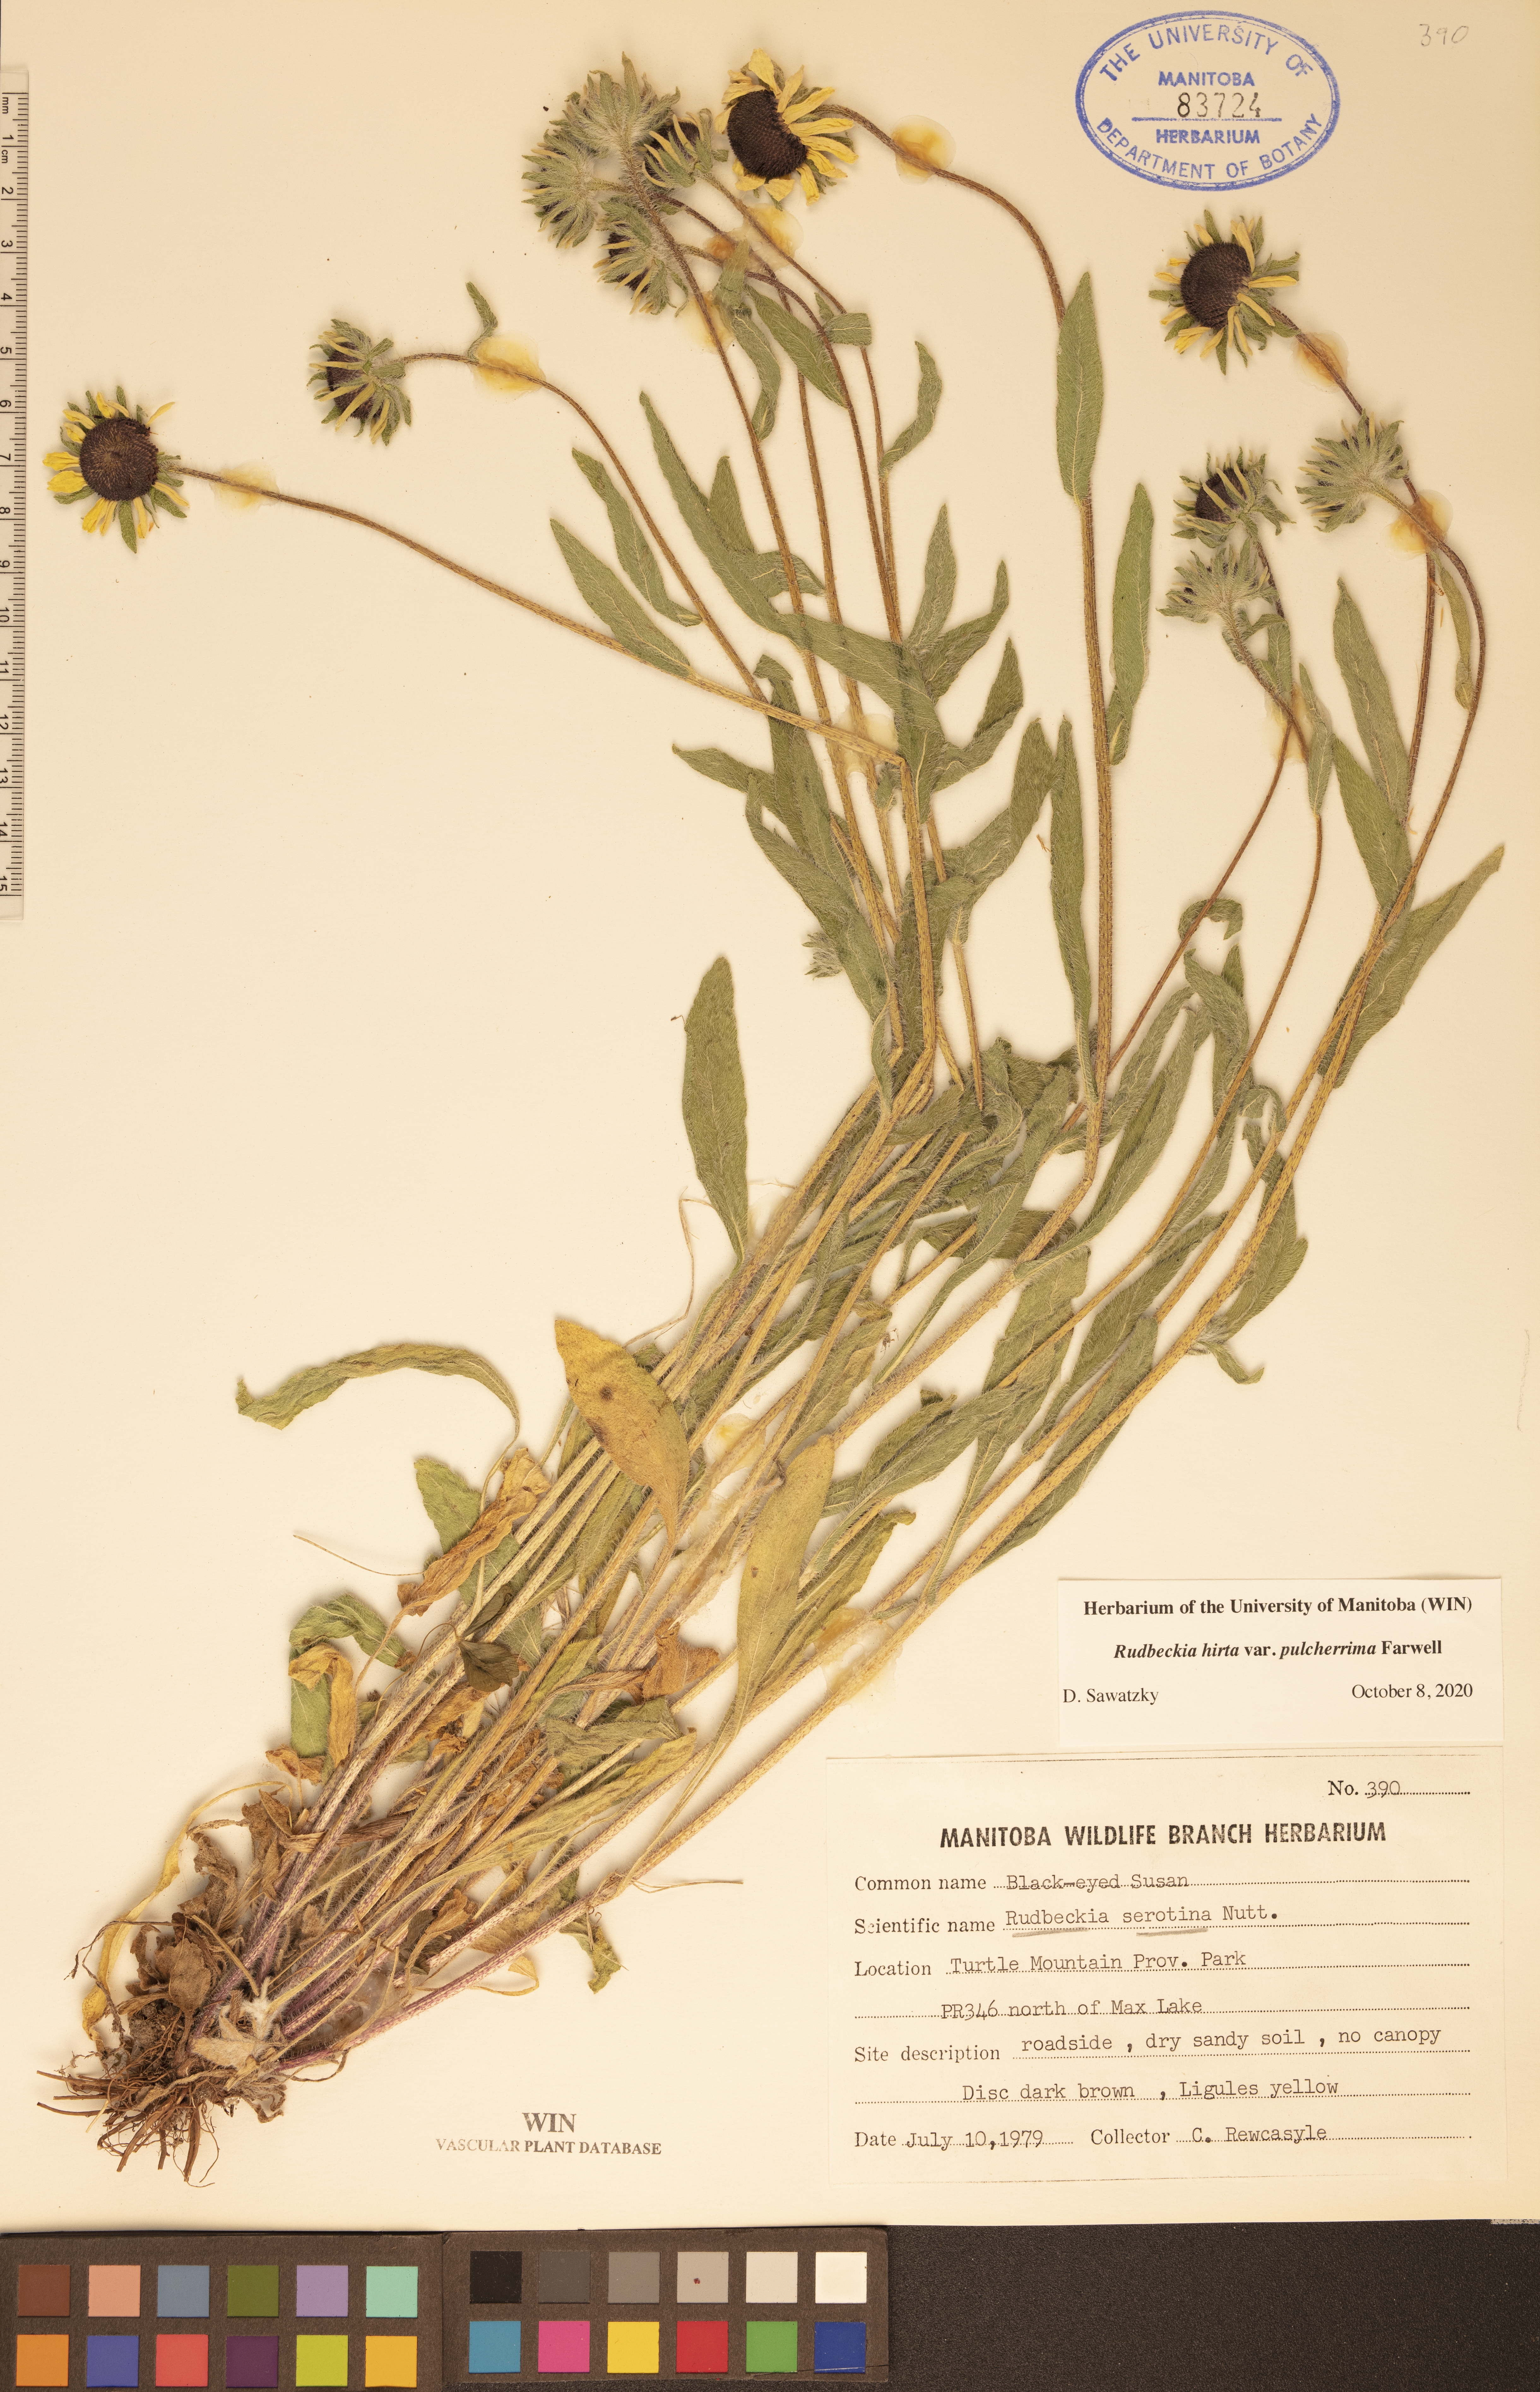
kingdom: Plantae
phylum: Tracheophyta
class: Magnoliopsida
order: Asterales
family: Asteraceae
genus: Rudbeckia
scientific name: Rudbeckia hirta
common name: Black-eyed-susan
